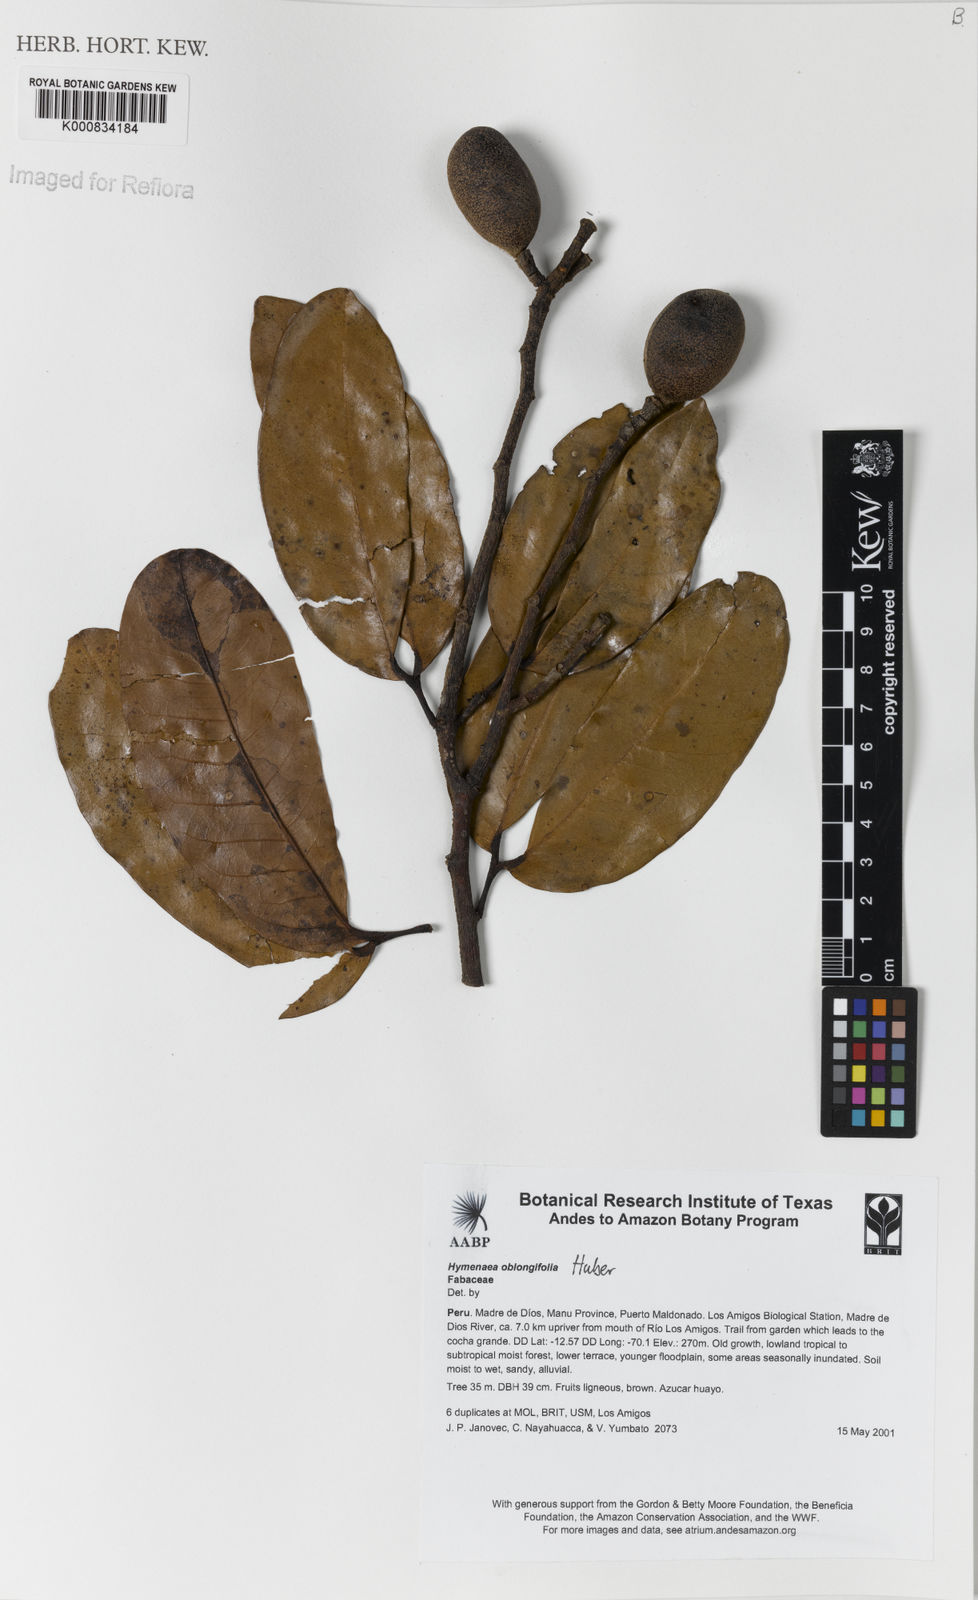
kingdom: Plantae
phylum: Tracheophyta
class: Magnoliopsida
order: Fabales
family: Fabaceae
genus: Hymenaea
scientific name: Hymenaea oblongifolia
